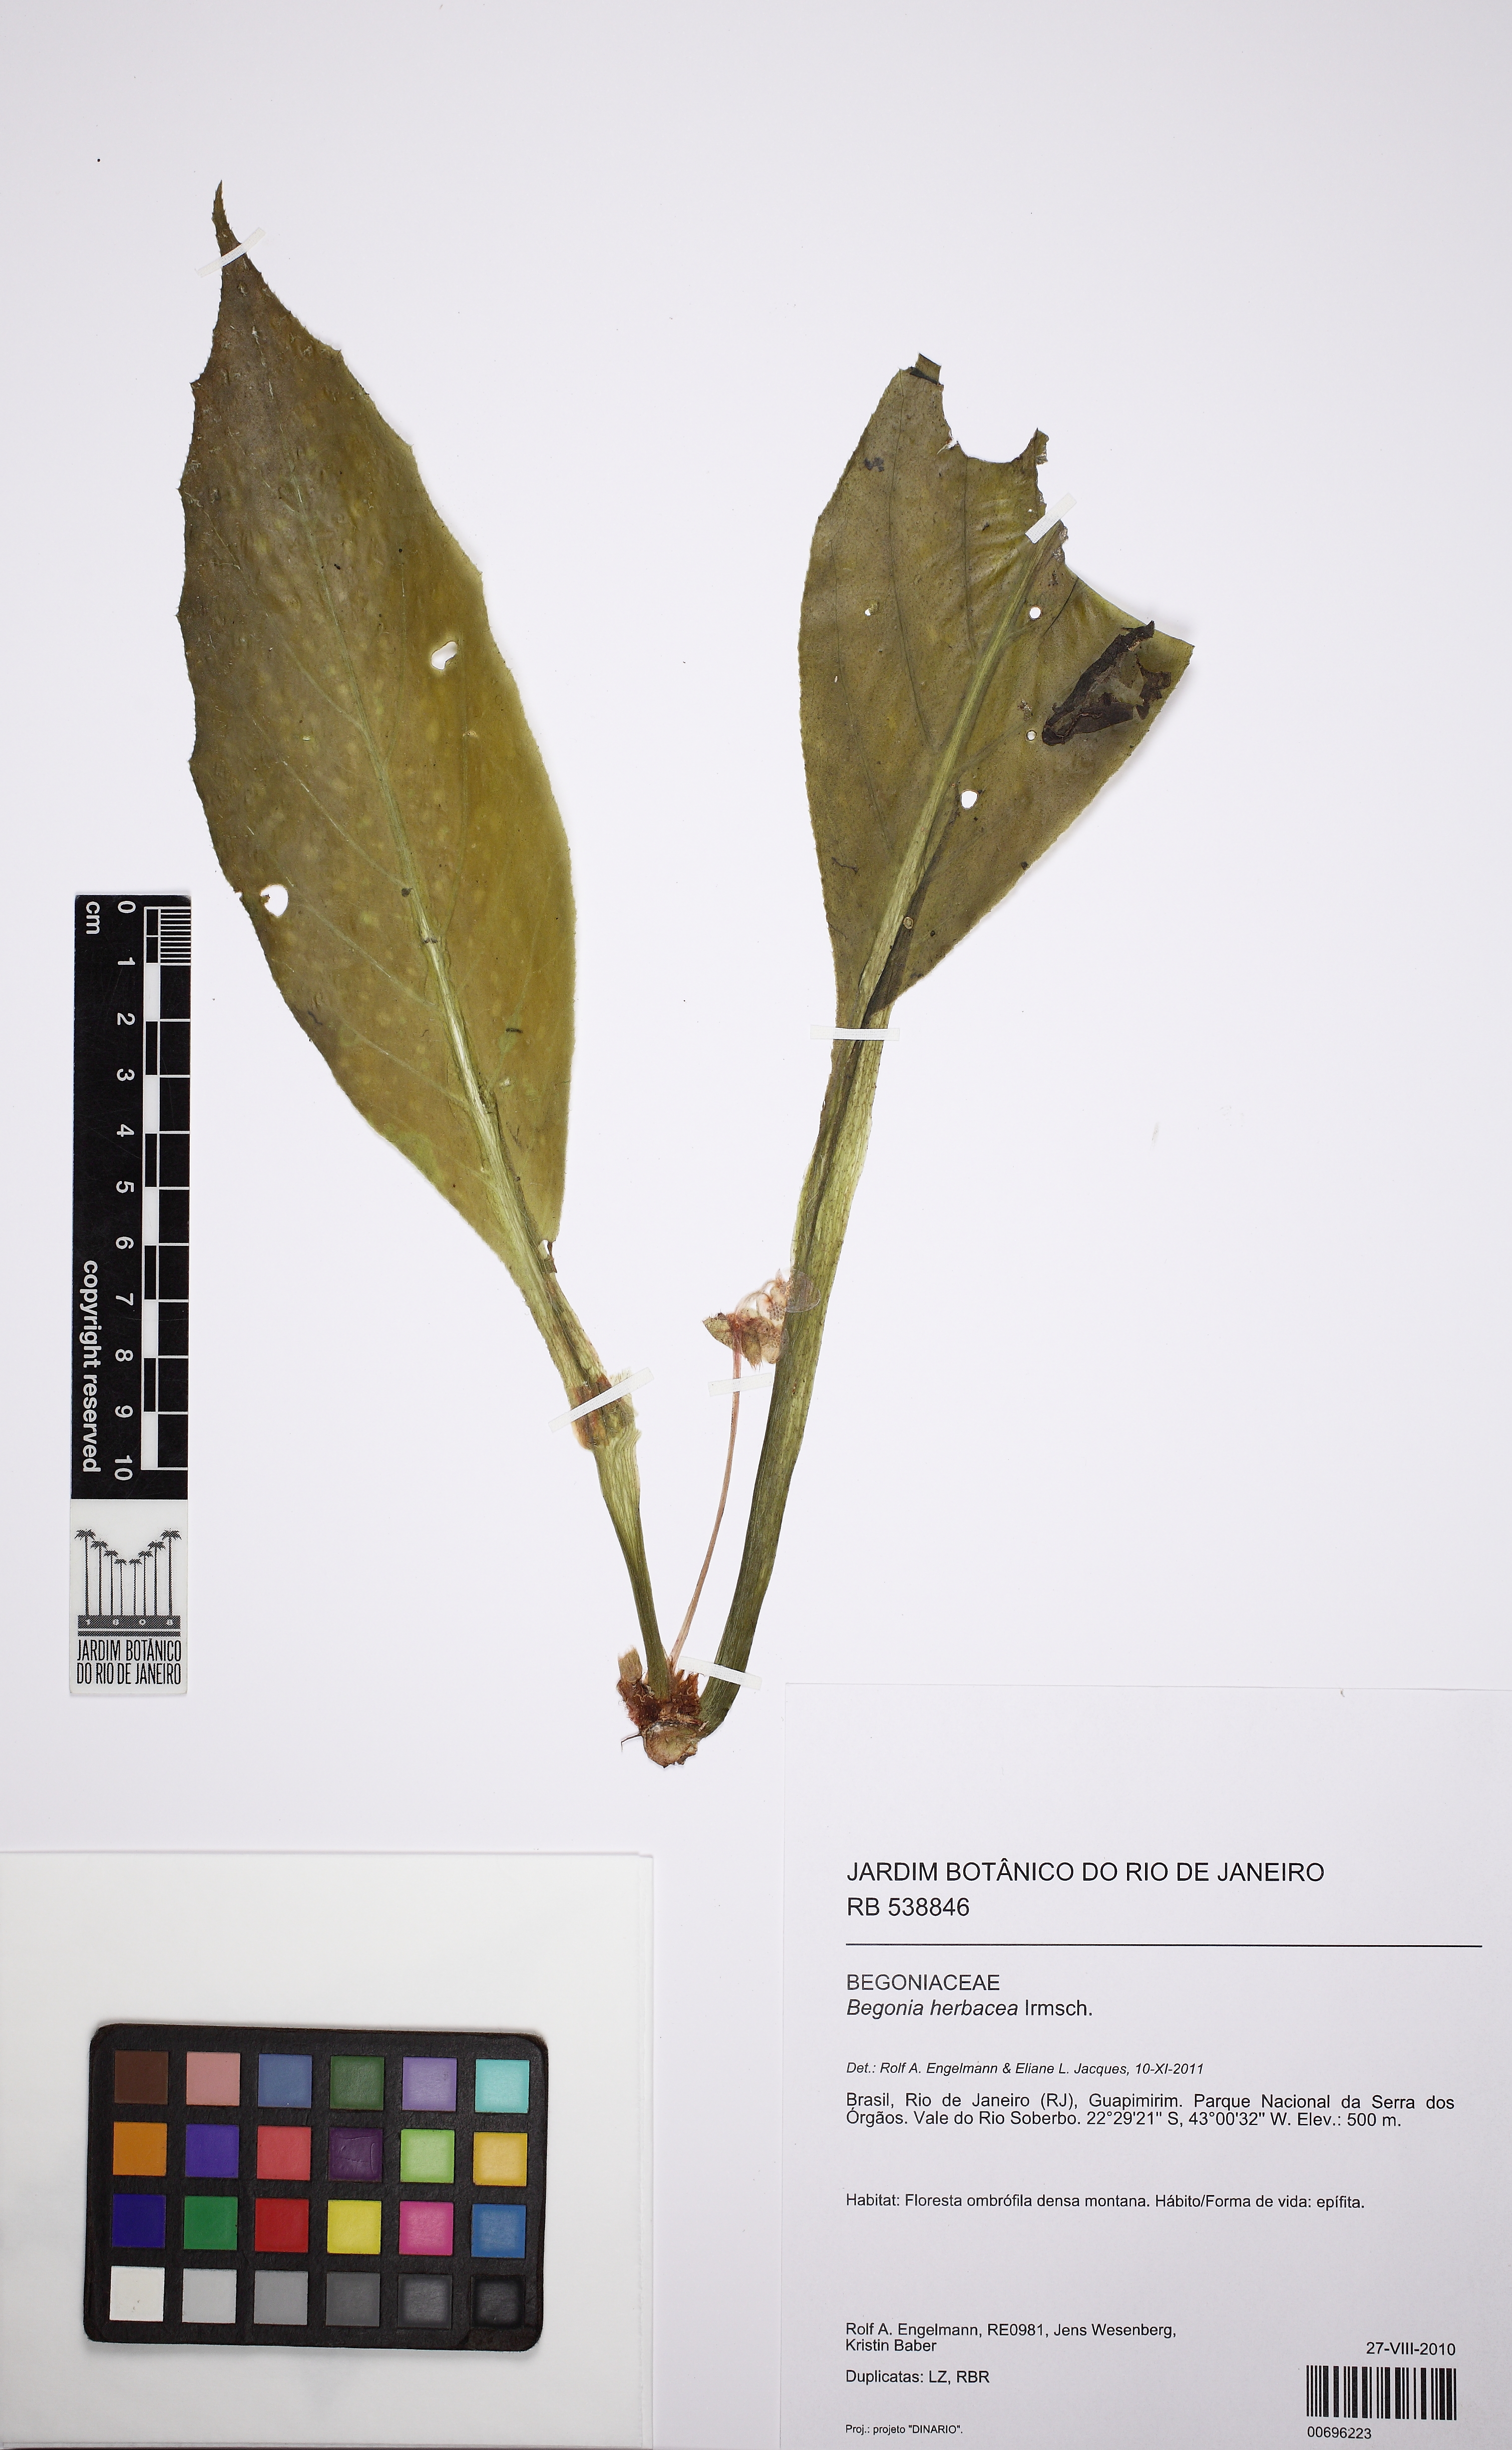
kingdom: Plantae
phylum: Tracheophyta
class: Magnoliopsida
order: Cucurbitales
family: Begoniaceae
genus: Begonia
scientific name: Begonia herbacea
